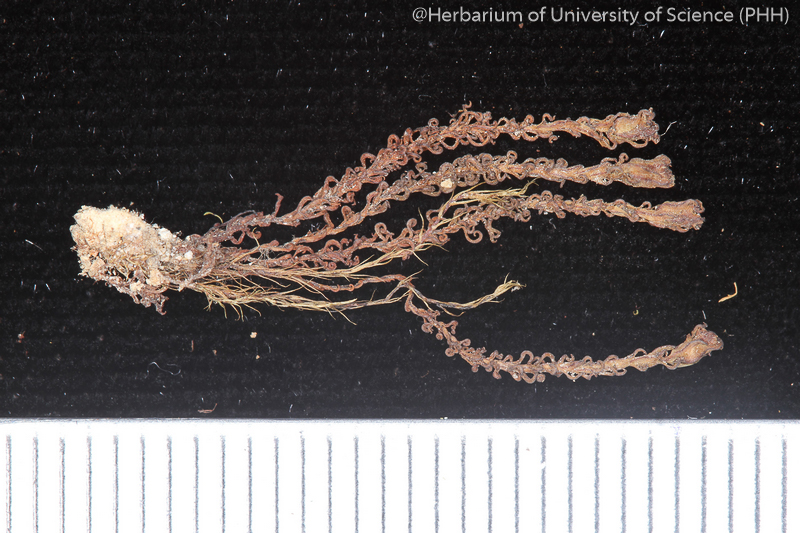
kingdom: Plantae
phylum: Bryophyta
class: Polytrichopsida
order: Polytrichales
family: Polytrichaceae
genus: Oligotrichum
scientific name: Oligotrichum javanicum
